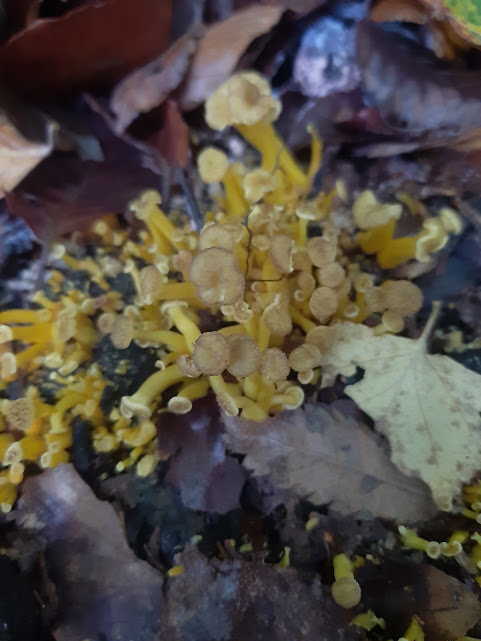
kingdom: Fungi
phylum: Basidiomycota
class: Agaricomycetes
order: Cantharellales
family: Hydnaceae
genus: Craterellus
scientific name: Craterellus tubaeformis
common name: tragt-kantarel
